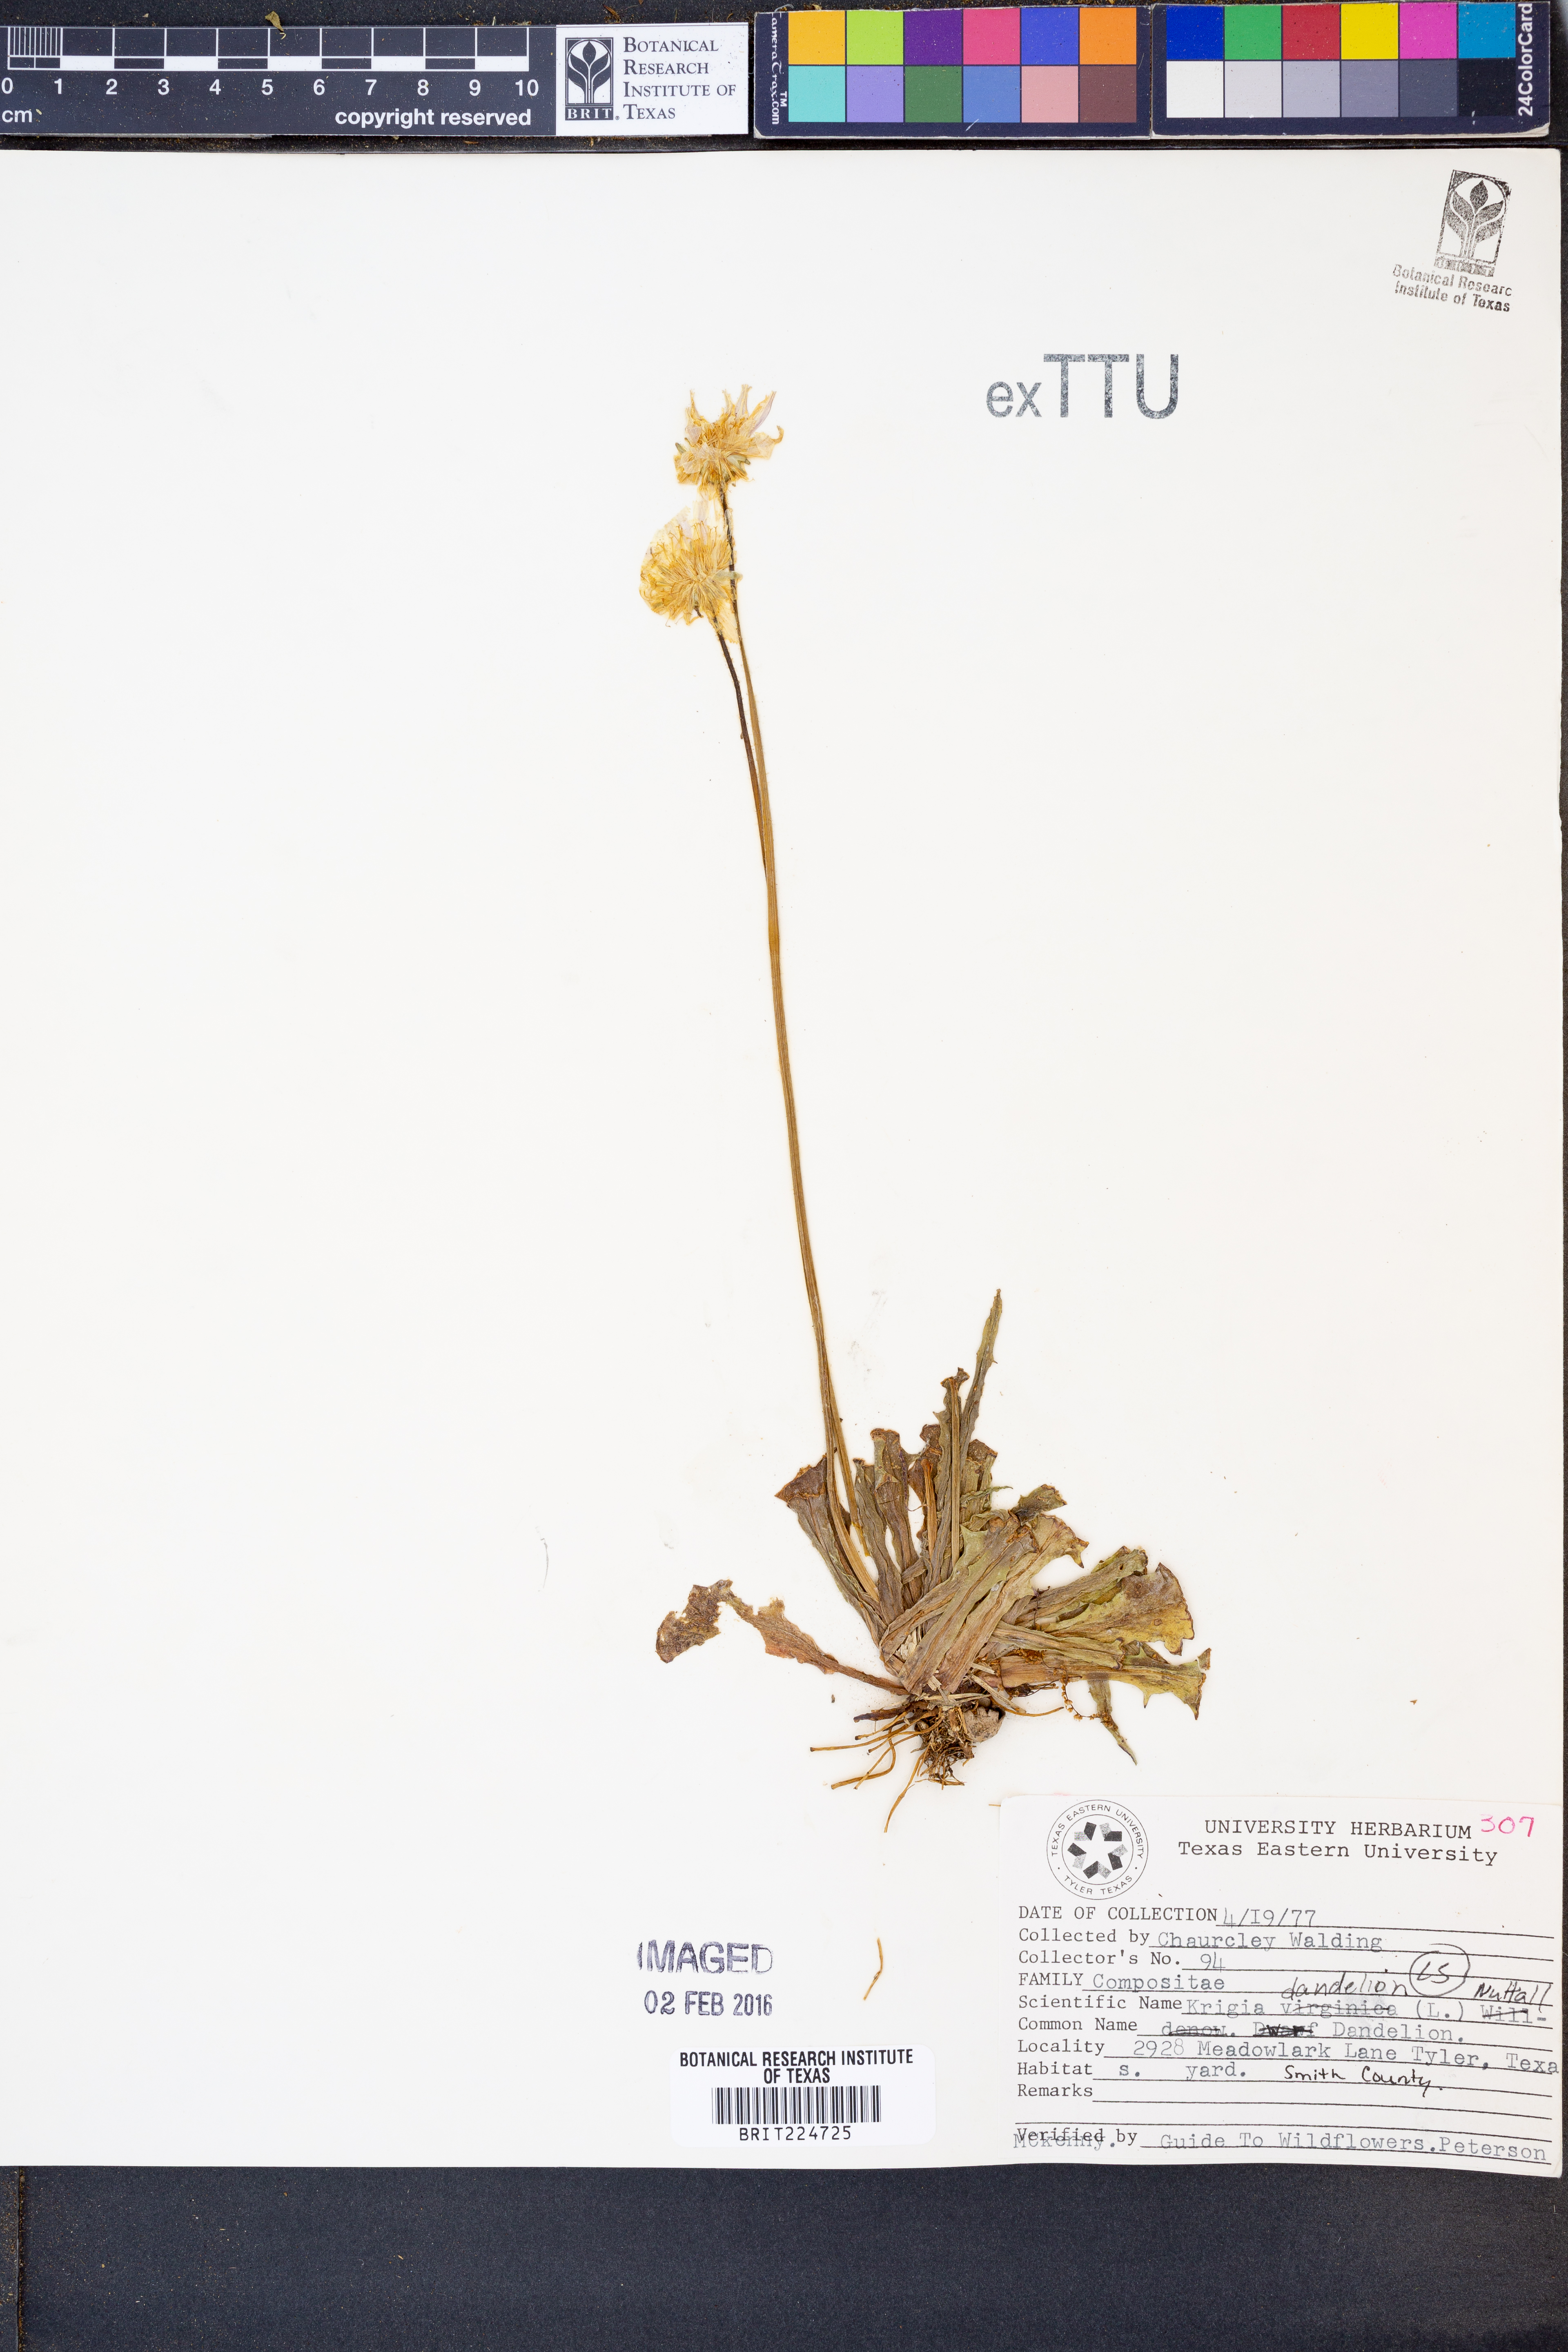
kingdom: Plantae
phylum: Tracheophyta
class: Magnoliopsida
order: Asterales
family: Asteraceae
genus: Krigia
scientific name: Krigia dandelion
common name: Colonial dwarf-dandelion
